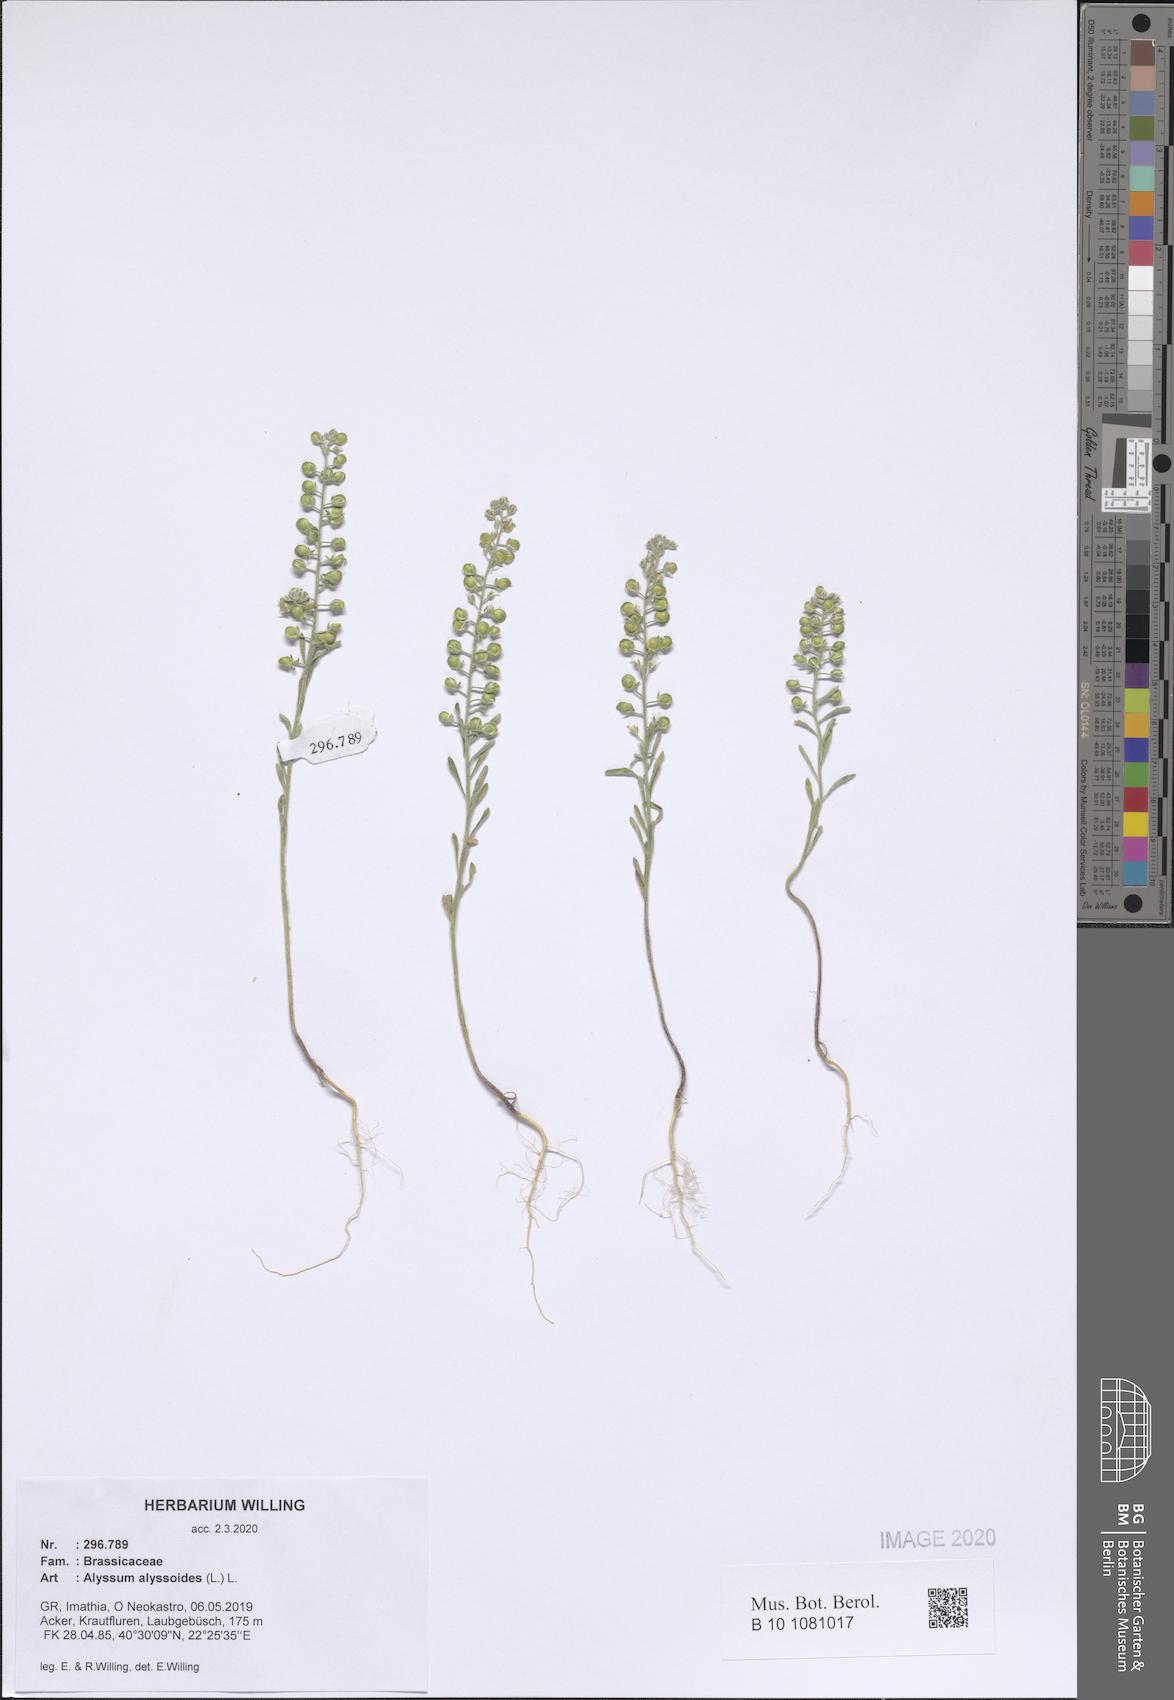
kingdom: Plantae
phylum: Tracheophyta
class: Magnoliopsida
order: Brassicales
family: Brassicaceae
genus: Alyssum
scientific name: Alyssum alyssoides
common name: Small alison
